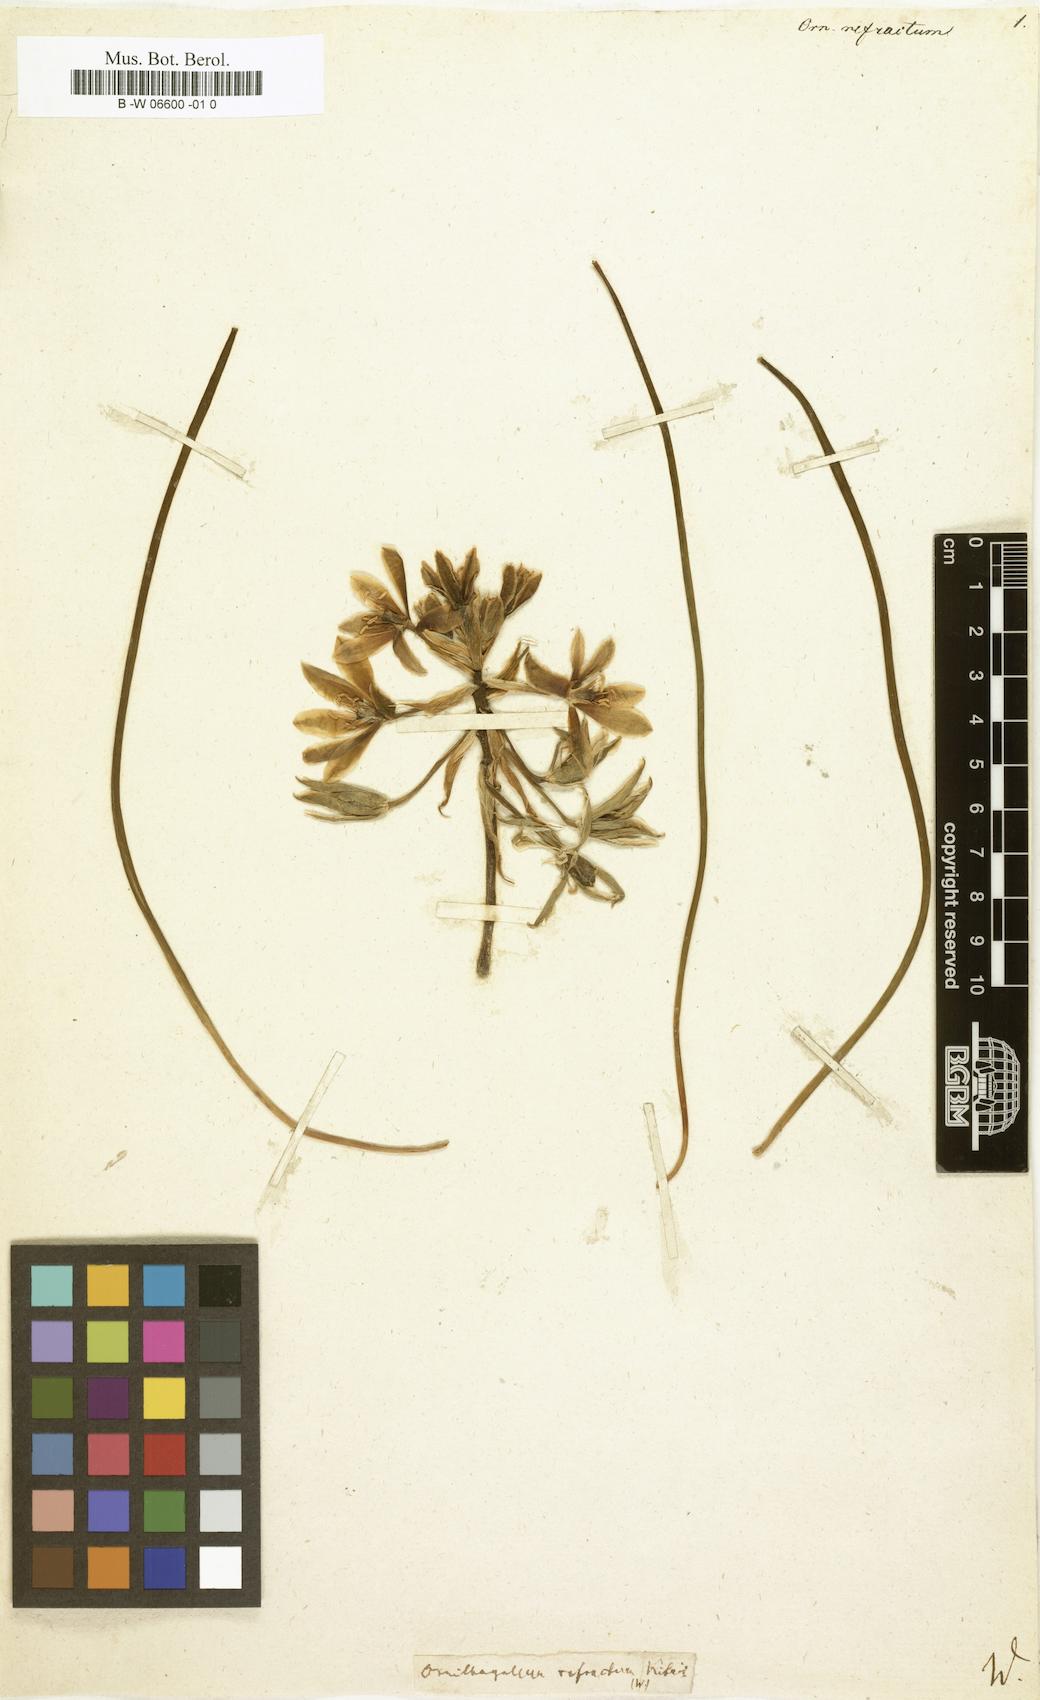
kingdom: Plantae
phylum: Tracheophyta
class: Liliopsida
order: Asparagales
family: Asparagaceae
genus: Ornithogalum
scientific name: Ornithogalum refractum
